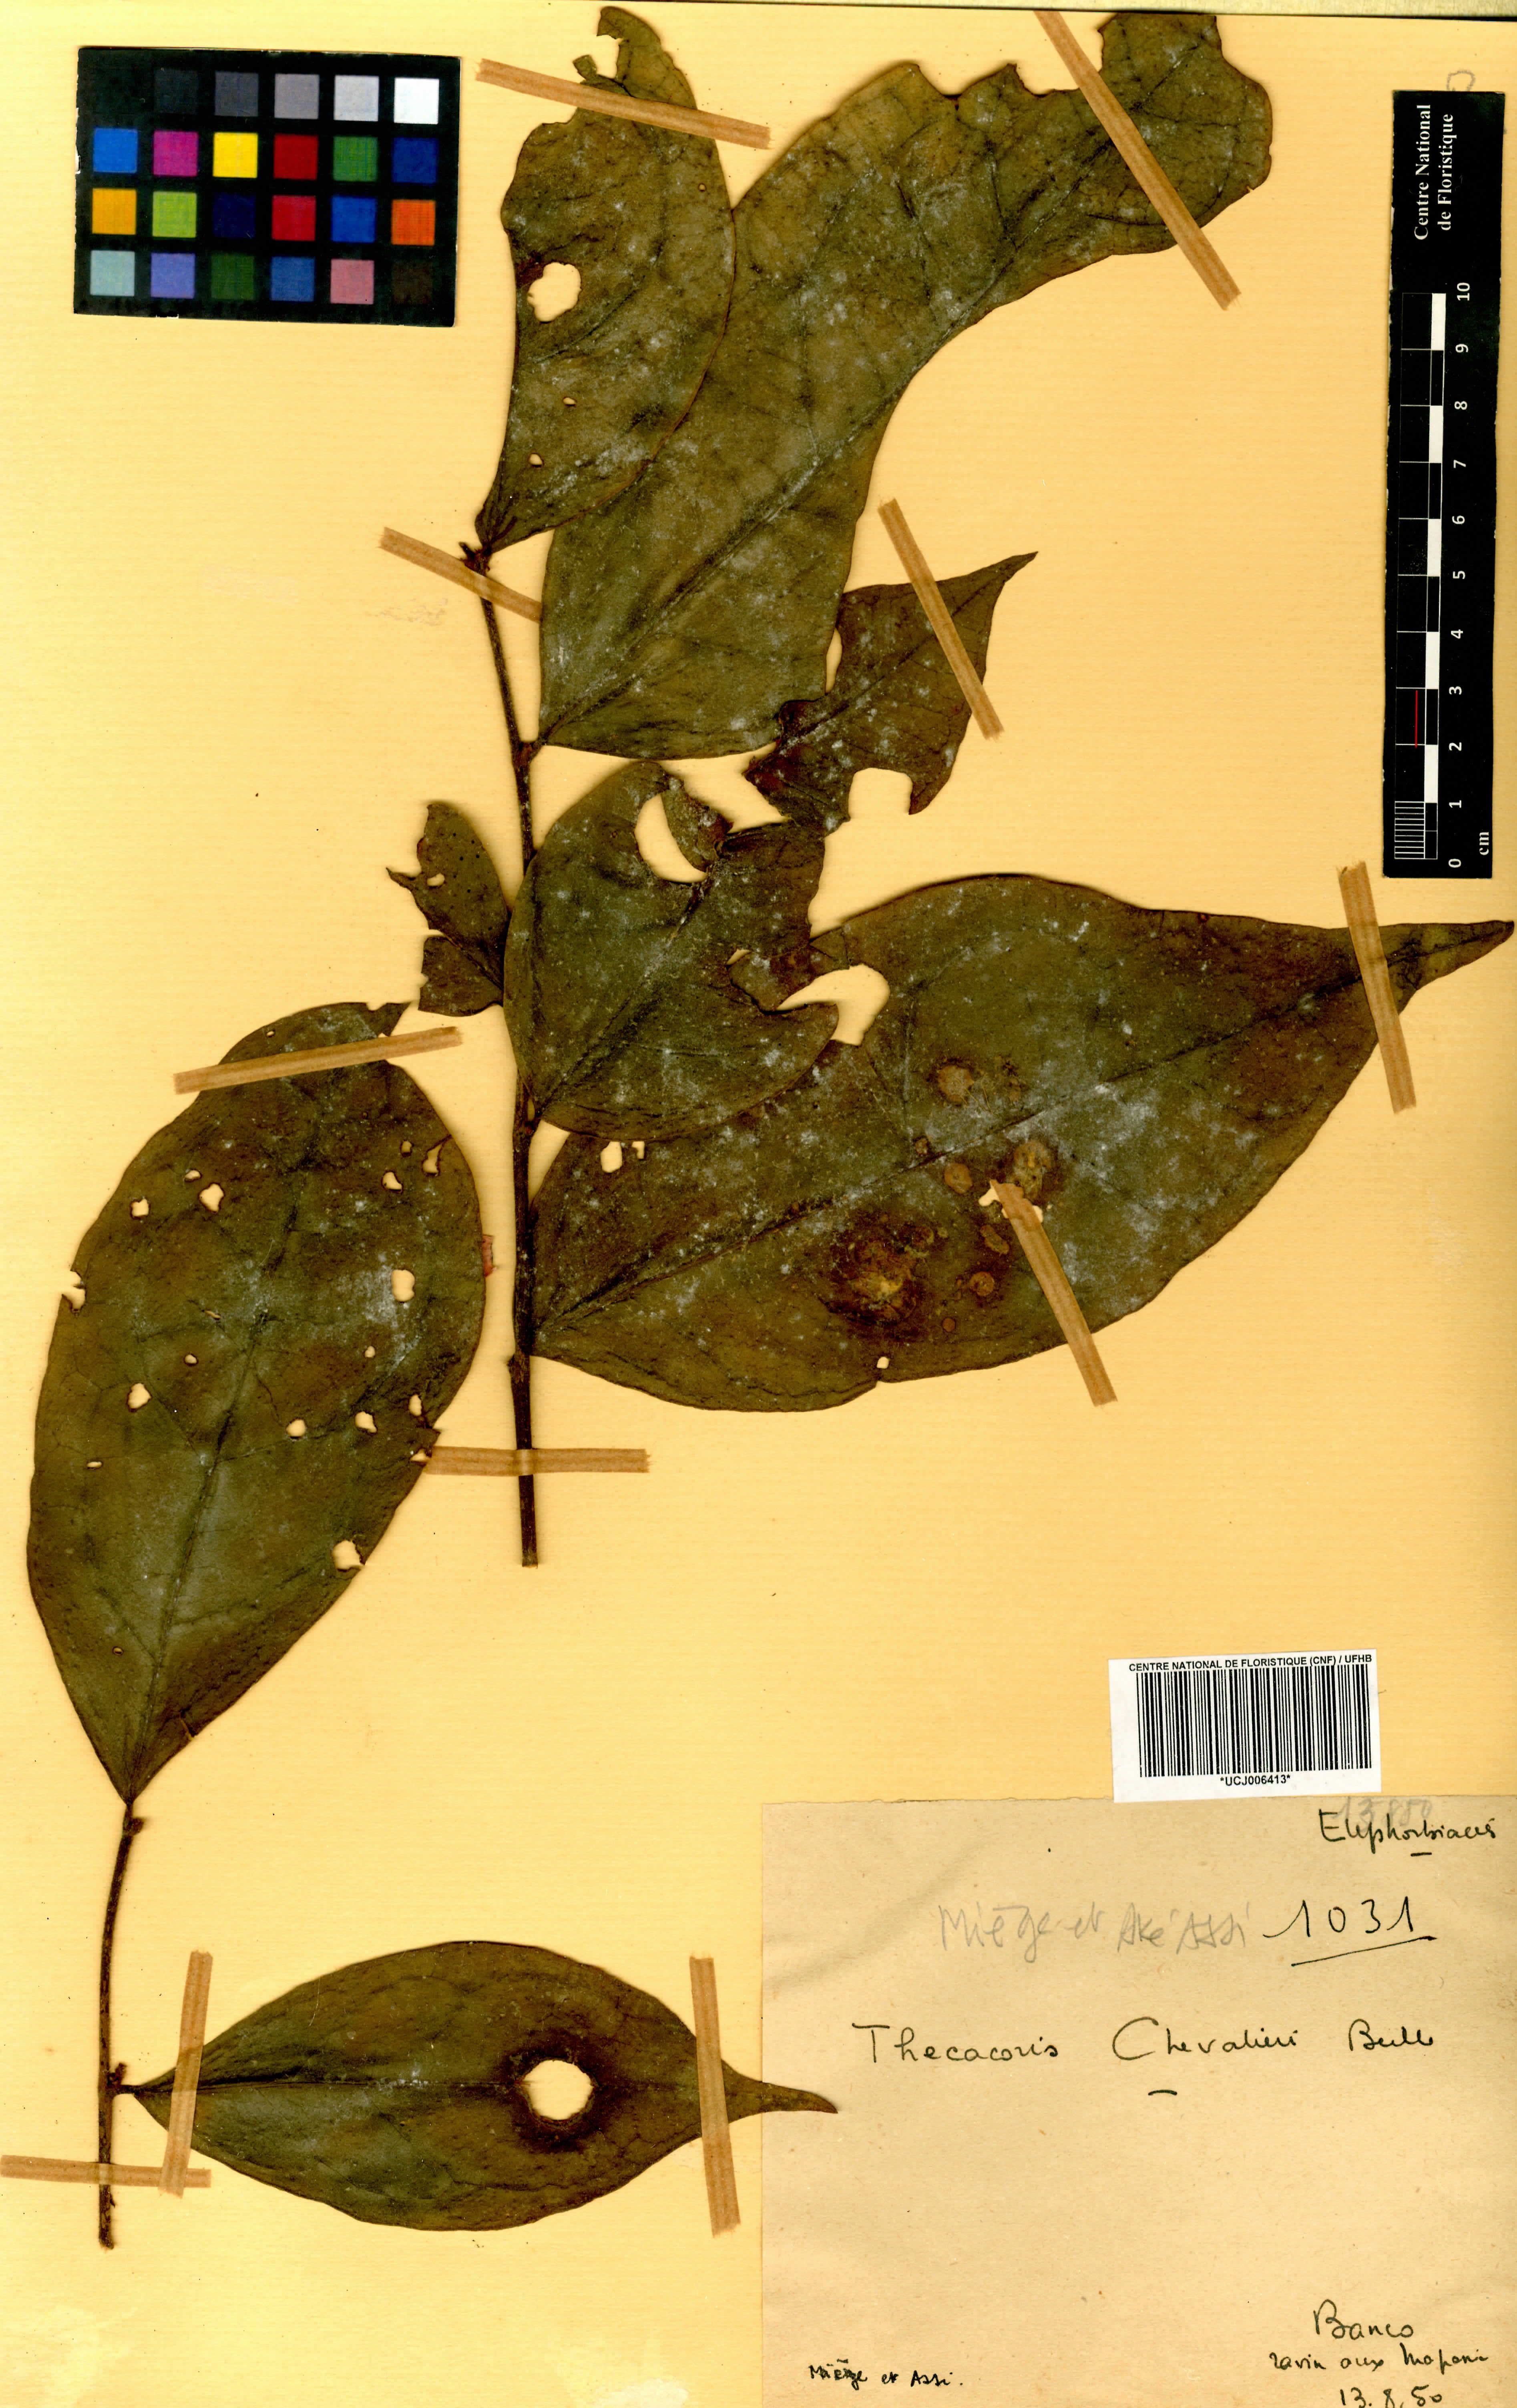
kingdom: Plantae
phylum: Tracheophyta
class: Magnoliopsida
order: Malpighiales
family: Phyllanthaceae
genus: Thecacoris
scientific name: Thecacoris stenopetala
